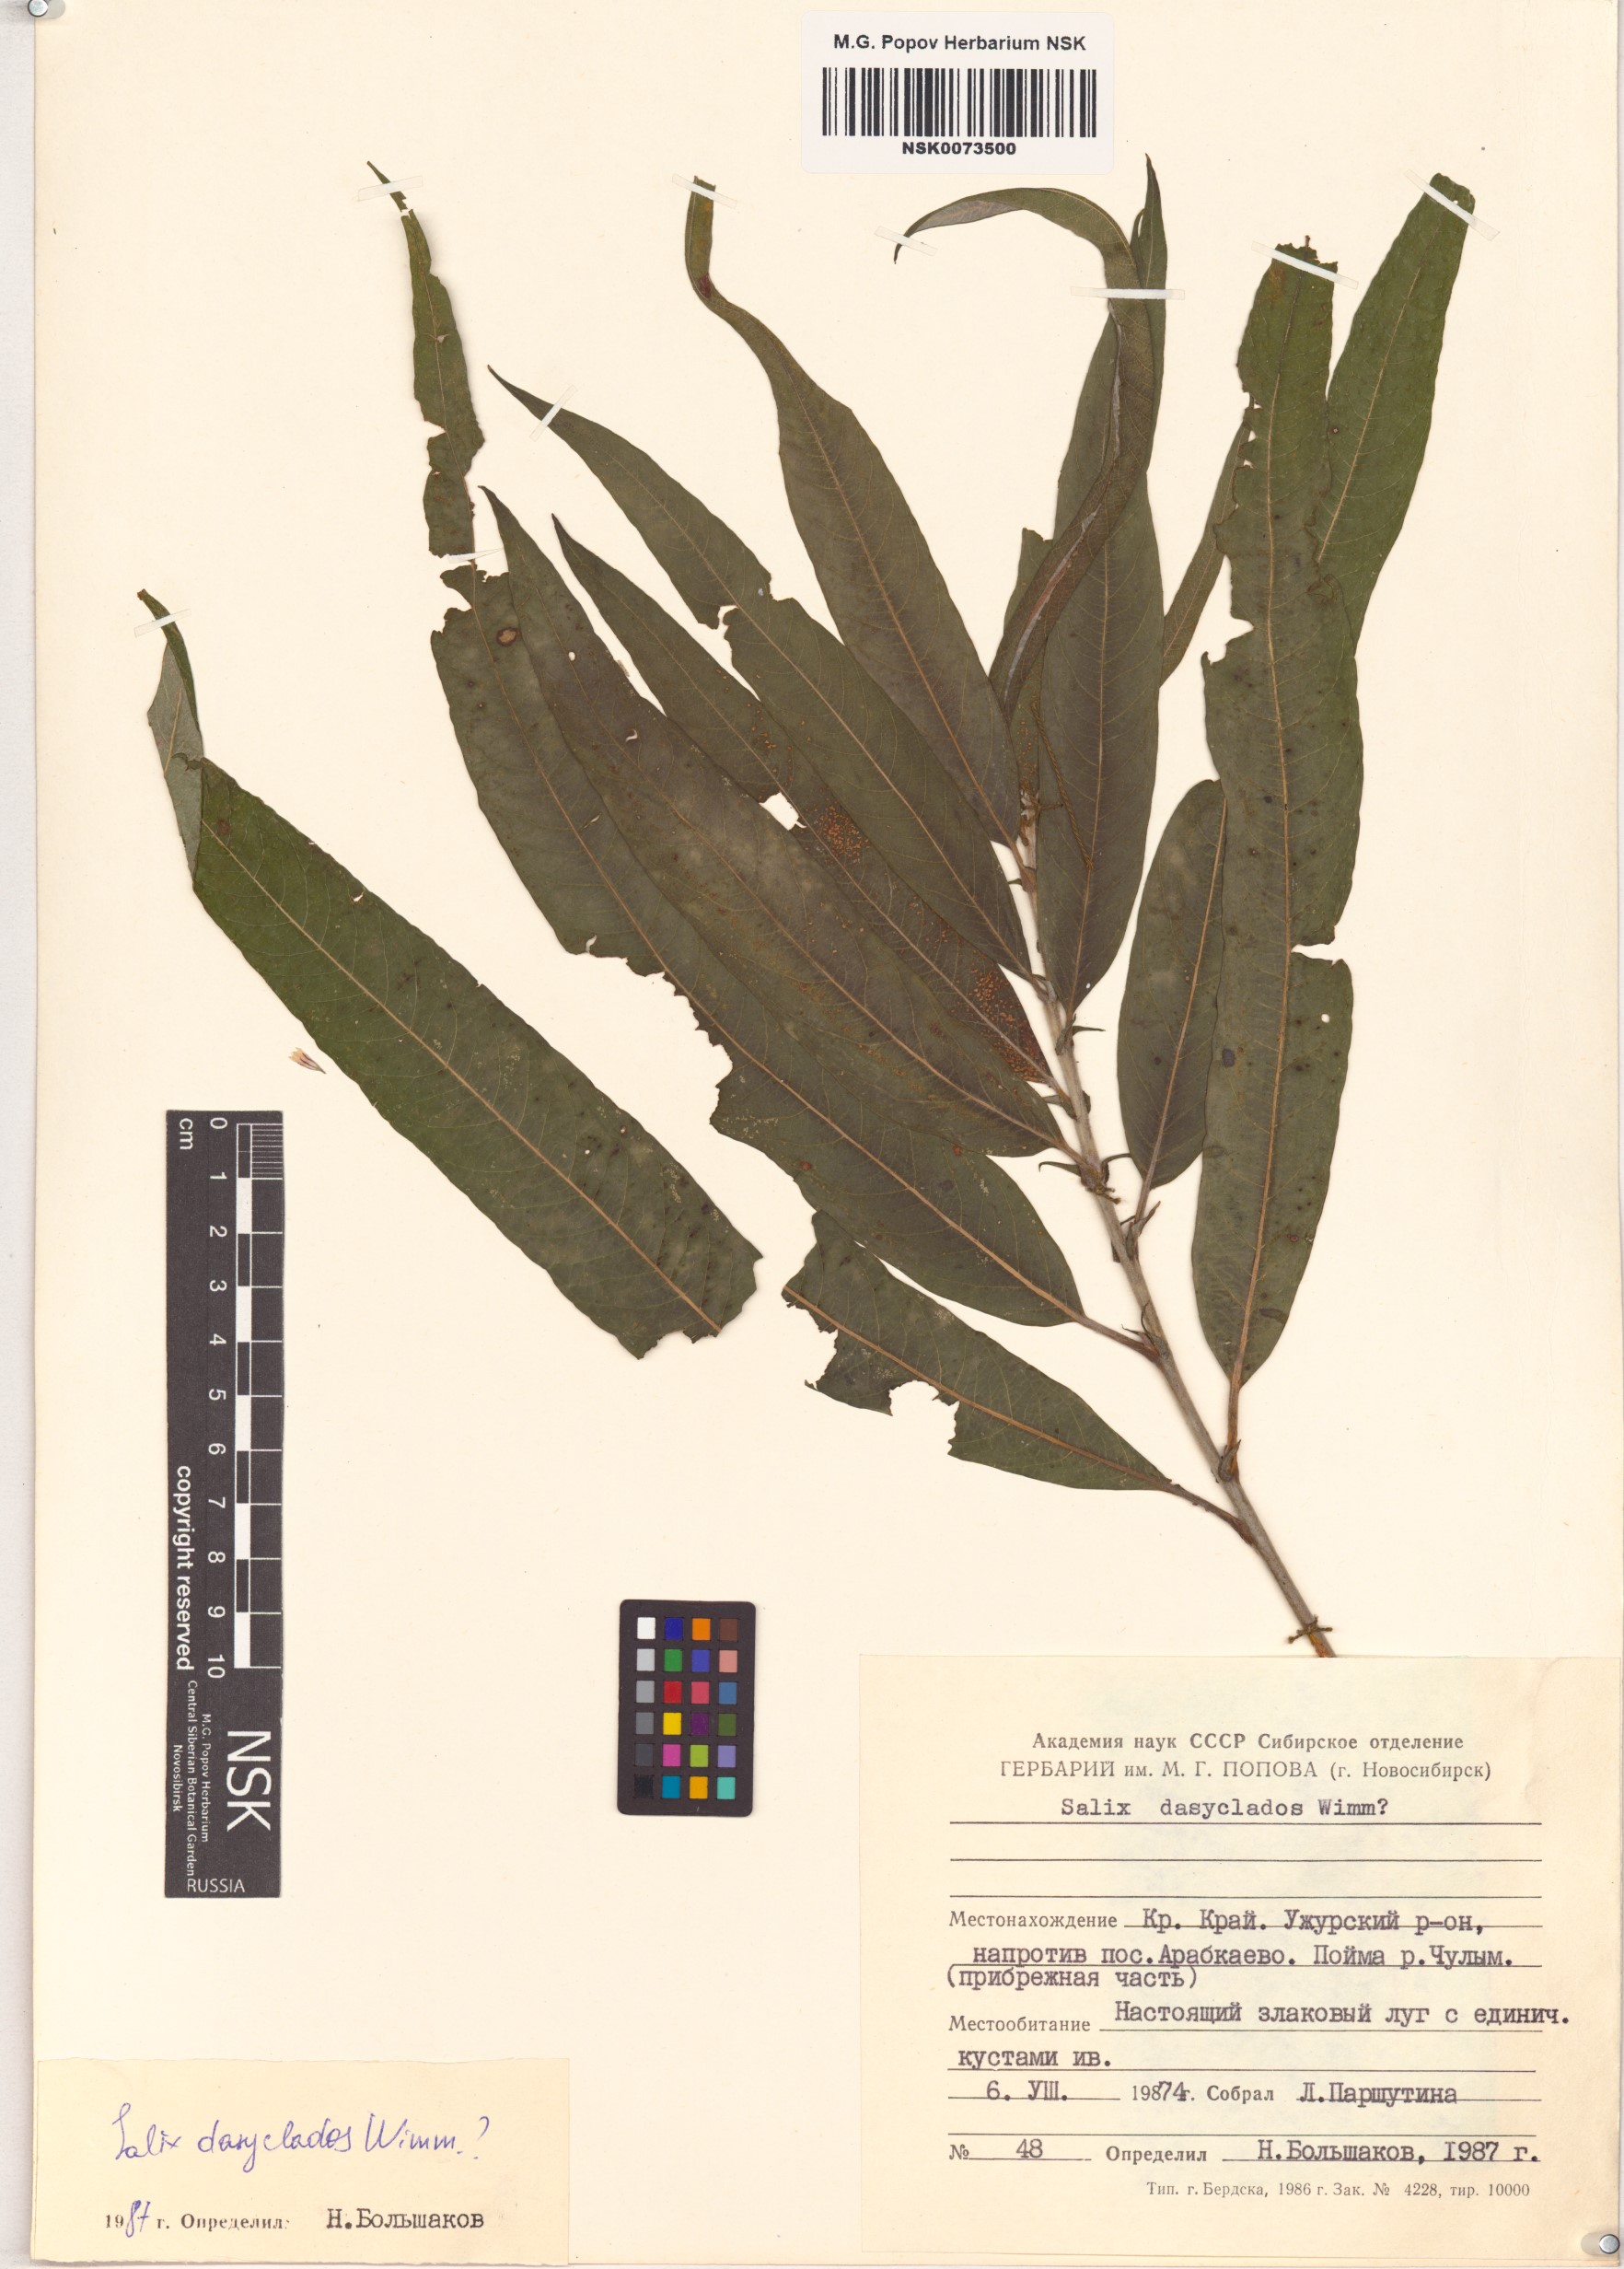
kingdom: Plantae
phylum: Tracheophyta
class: Magnoliopsida
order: Malpighiales
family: Salicaceae
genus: Salix
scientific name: Salix gmelinii
